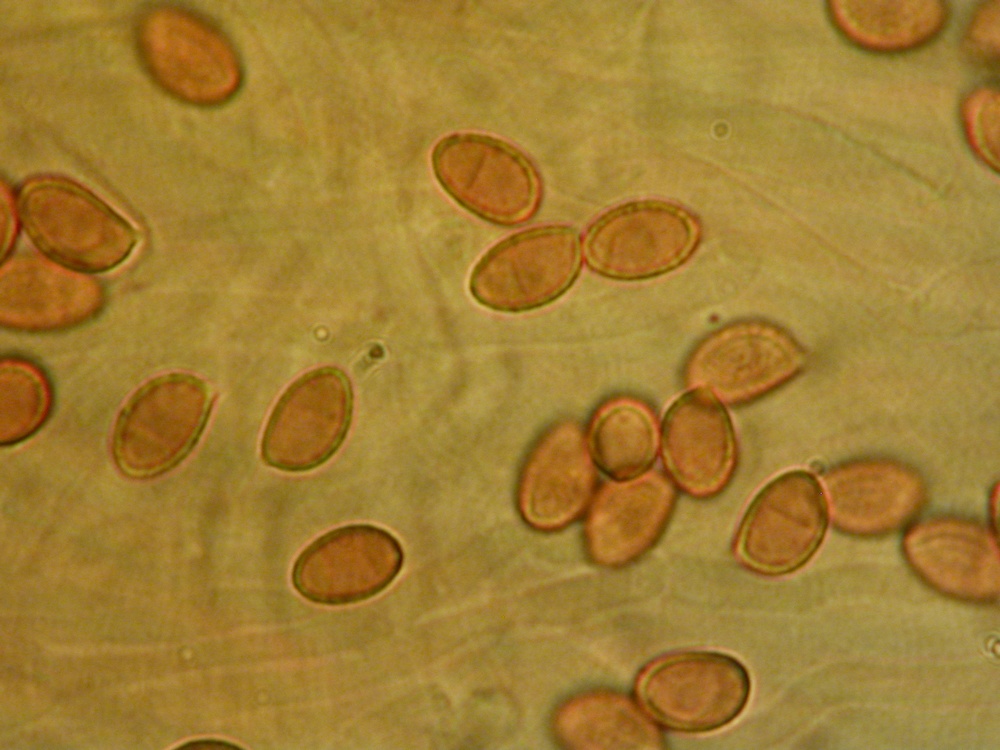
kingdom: Fungi
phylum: Basidiomycota
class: Agaricomycetes
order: Agaricales
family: Cortinariaceae
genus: Thaxterogaster
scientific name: Thaxterogaster leucoluteolus
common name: isabella slørhat
